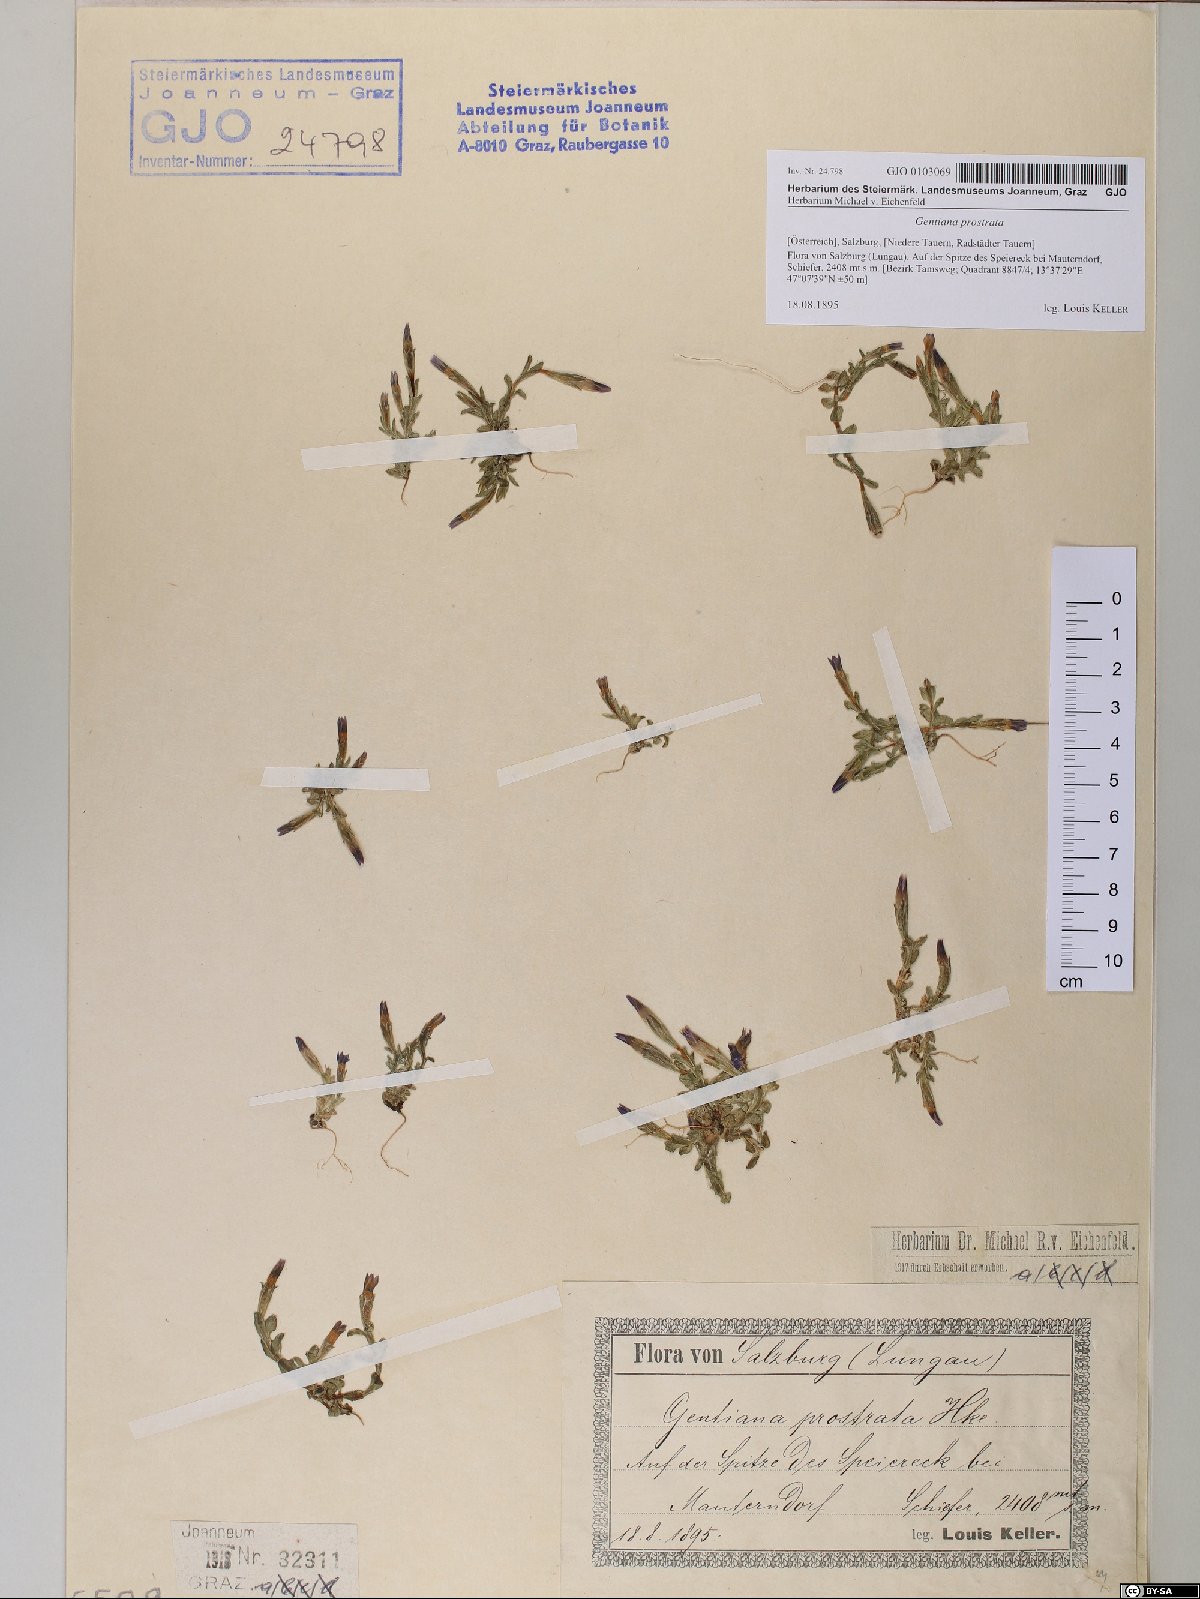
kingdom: Plantae
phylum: Tracheophyta
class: Magnoliopsida
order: Gentianales
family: Gentianaceae
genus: Gentiana
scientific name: Gentiana prostrata
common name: Moss gentian
